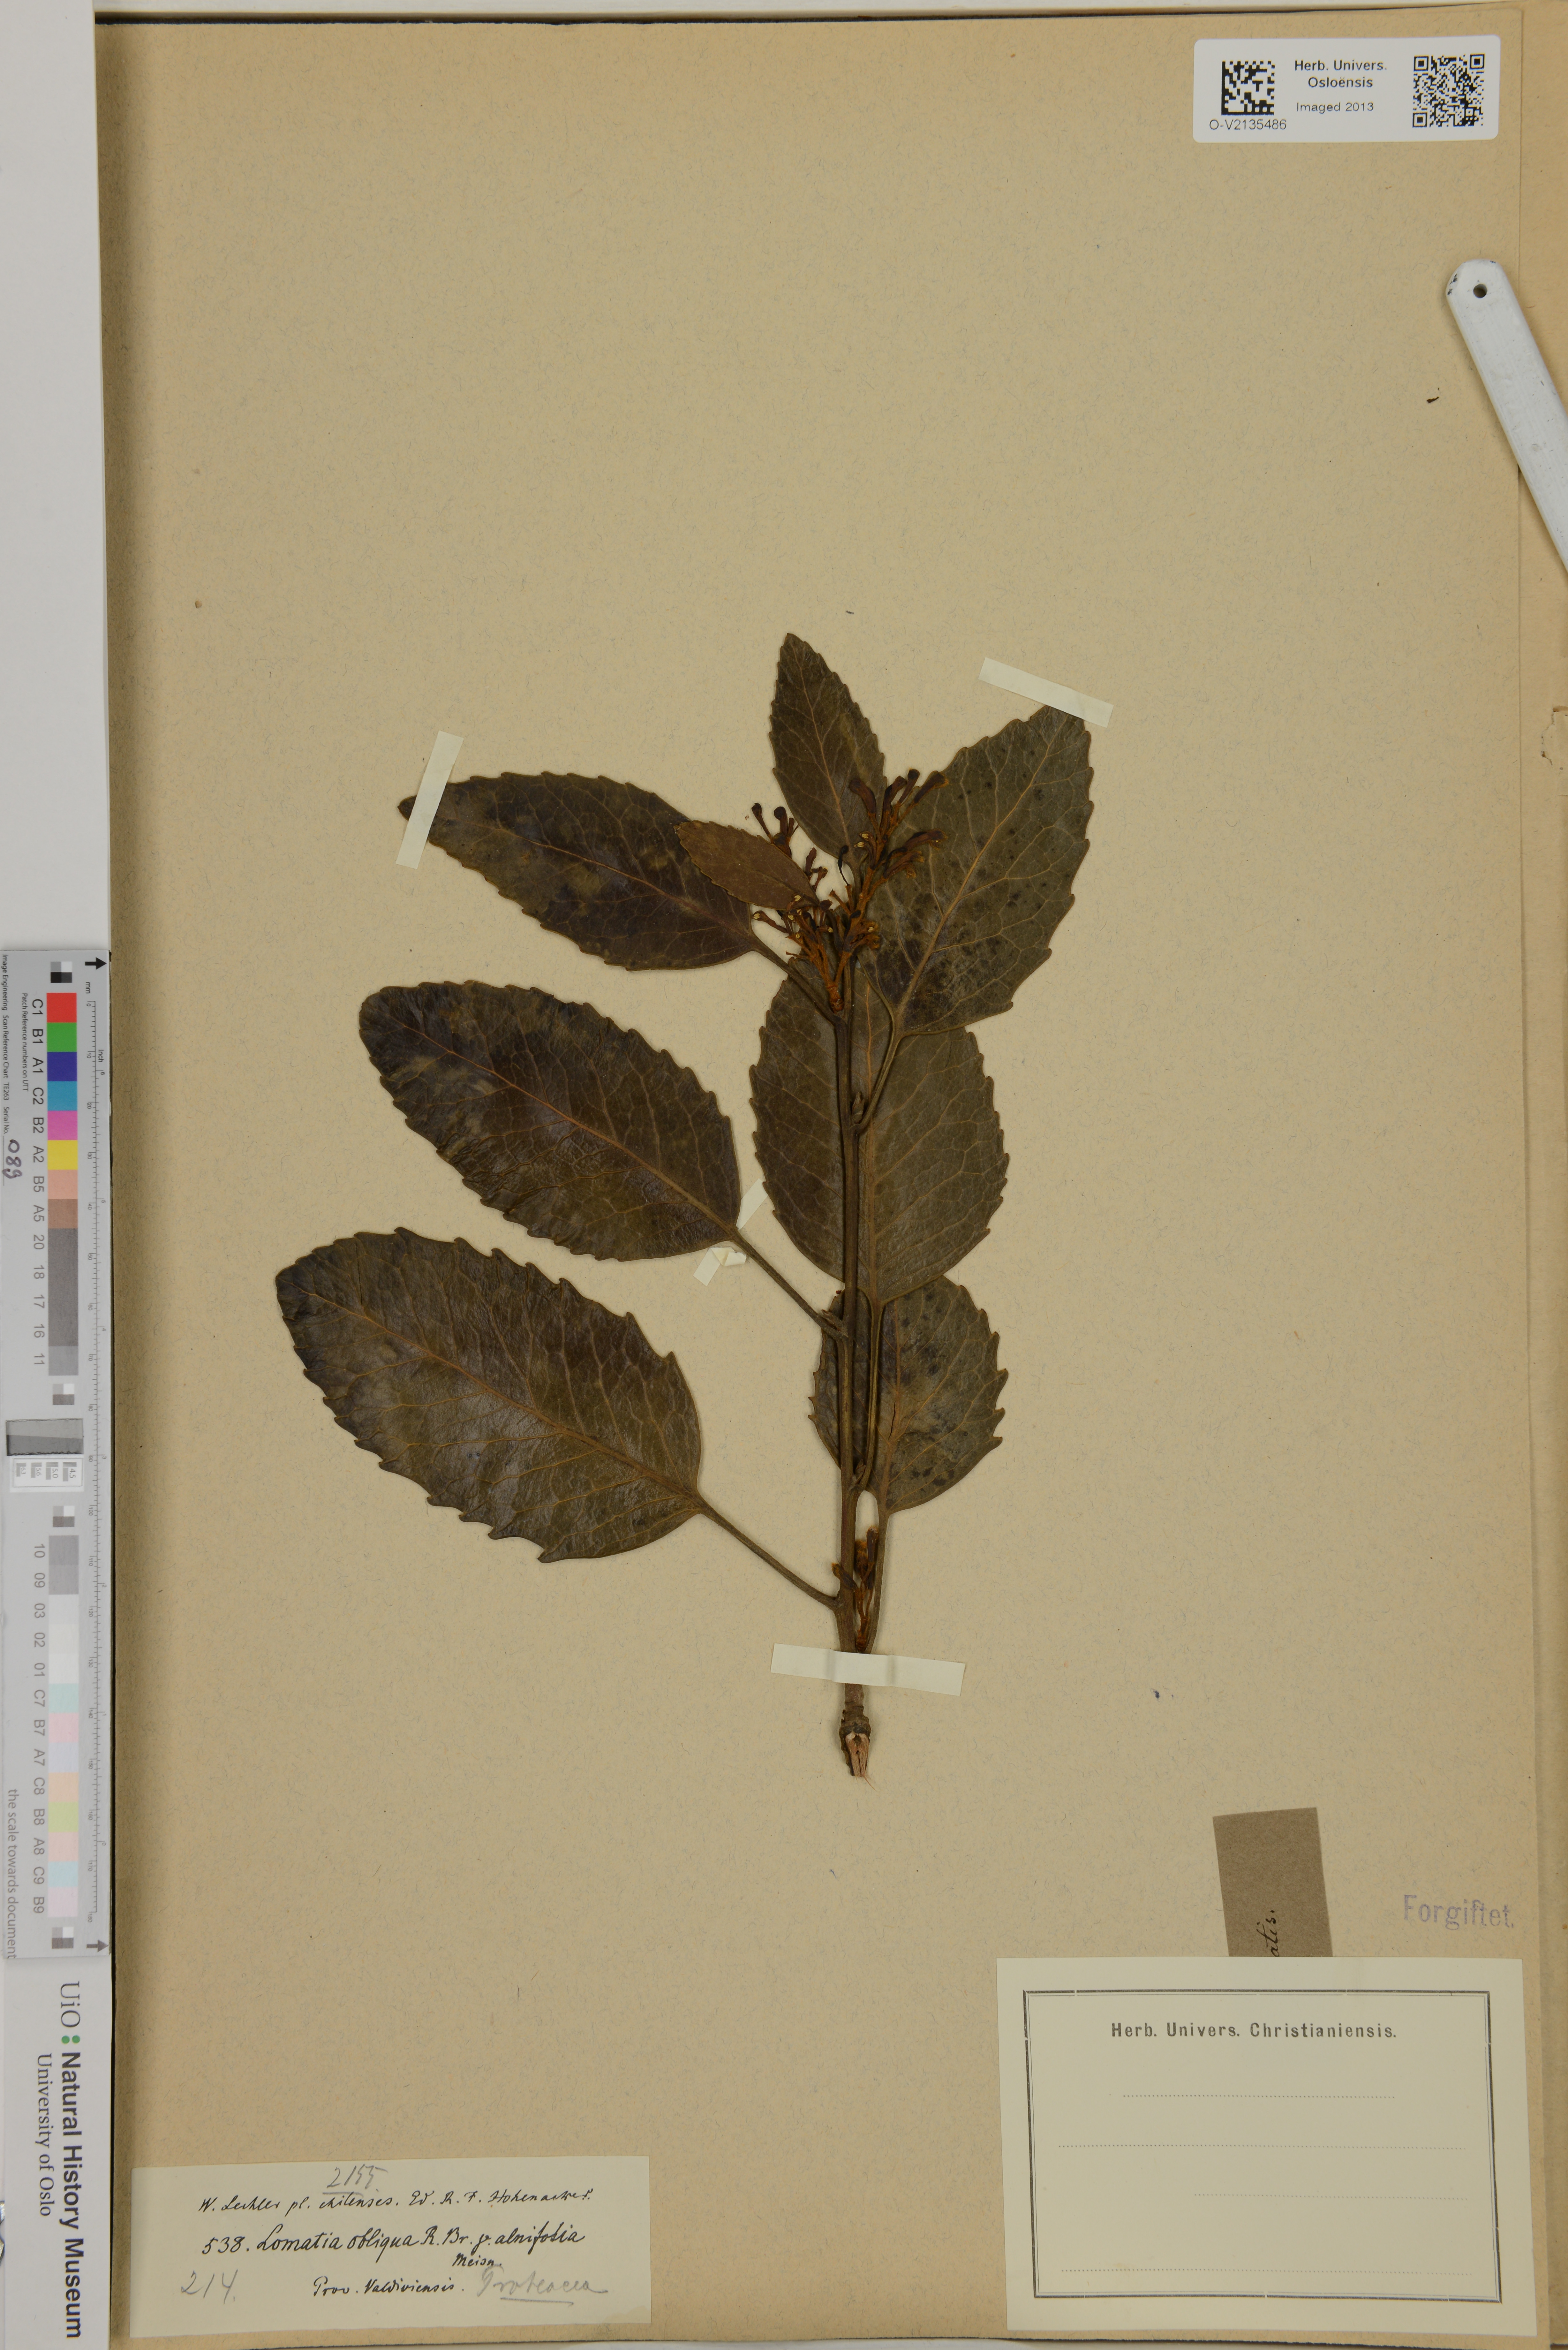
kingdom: Plantae
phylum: Tracheophyta
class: Magnoliopsida
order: Proteales
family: Proteaceae
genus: Lomatia
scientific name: Lomatia hirsuta
